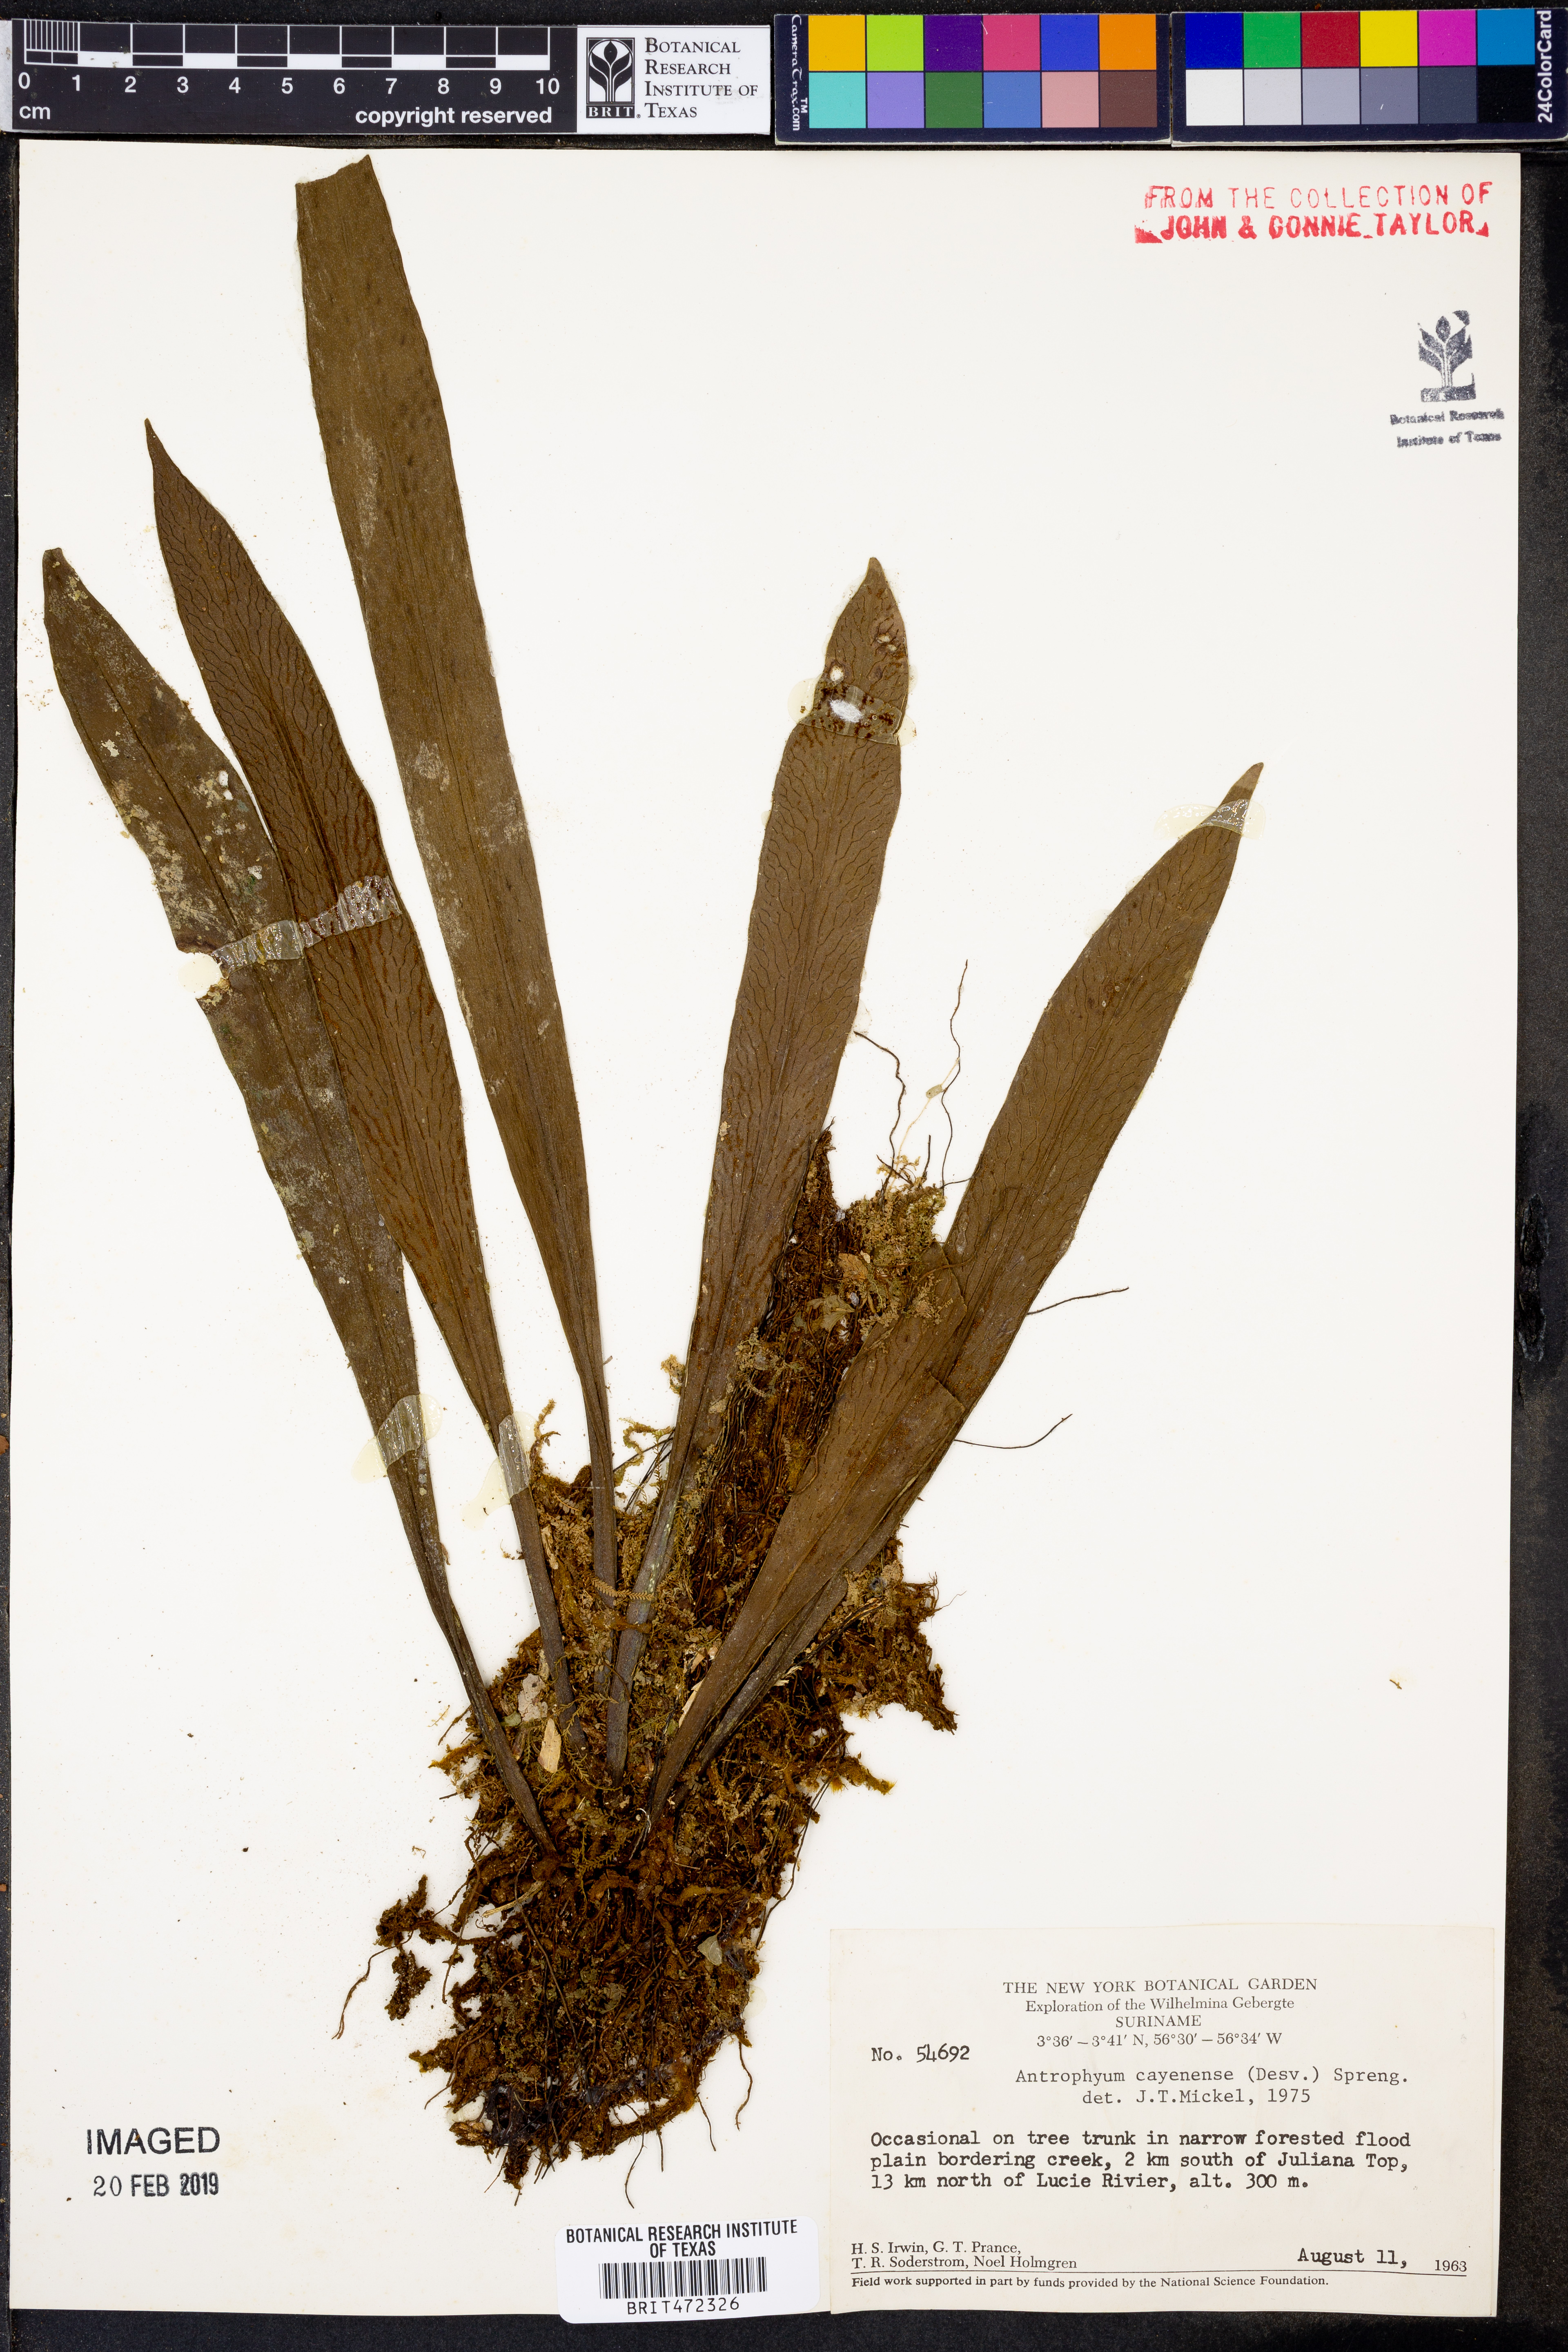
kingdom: Plantae
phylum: Tracheophyta
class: Polypodiopsida
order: Polypodiales
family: Pteridaceae
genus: Polytaenium
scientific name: Polytaenium cajenense
